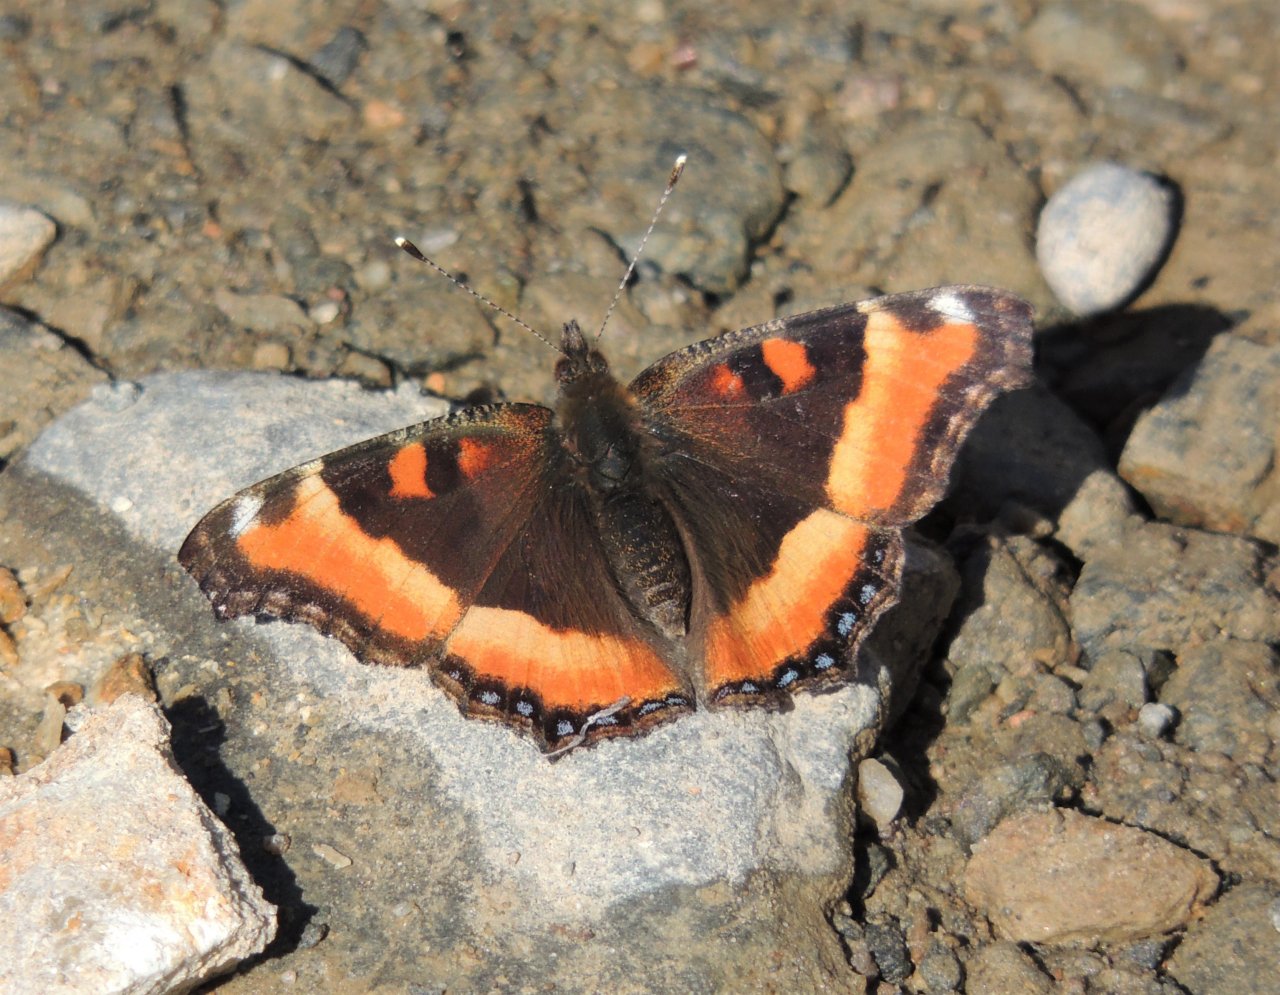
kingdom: Animalia
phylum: Arthropoda
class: Insecta
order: Lepidoptera
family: Nymphalidae
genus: Aglais
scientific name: Aglais milberti
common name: Milbert's Tortoiseshell
